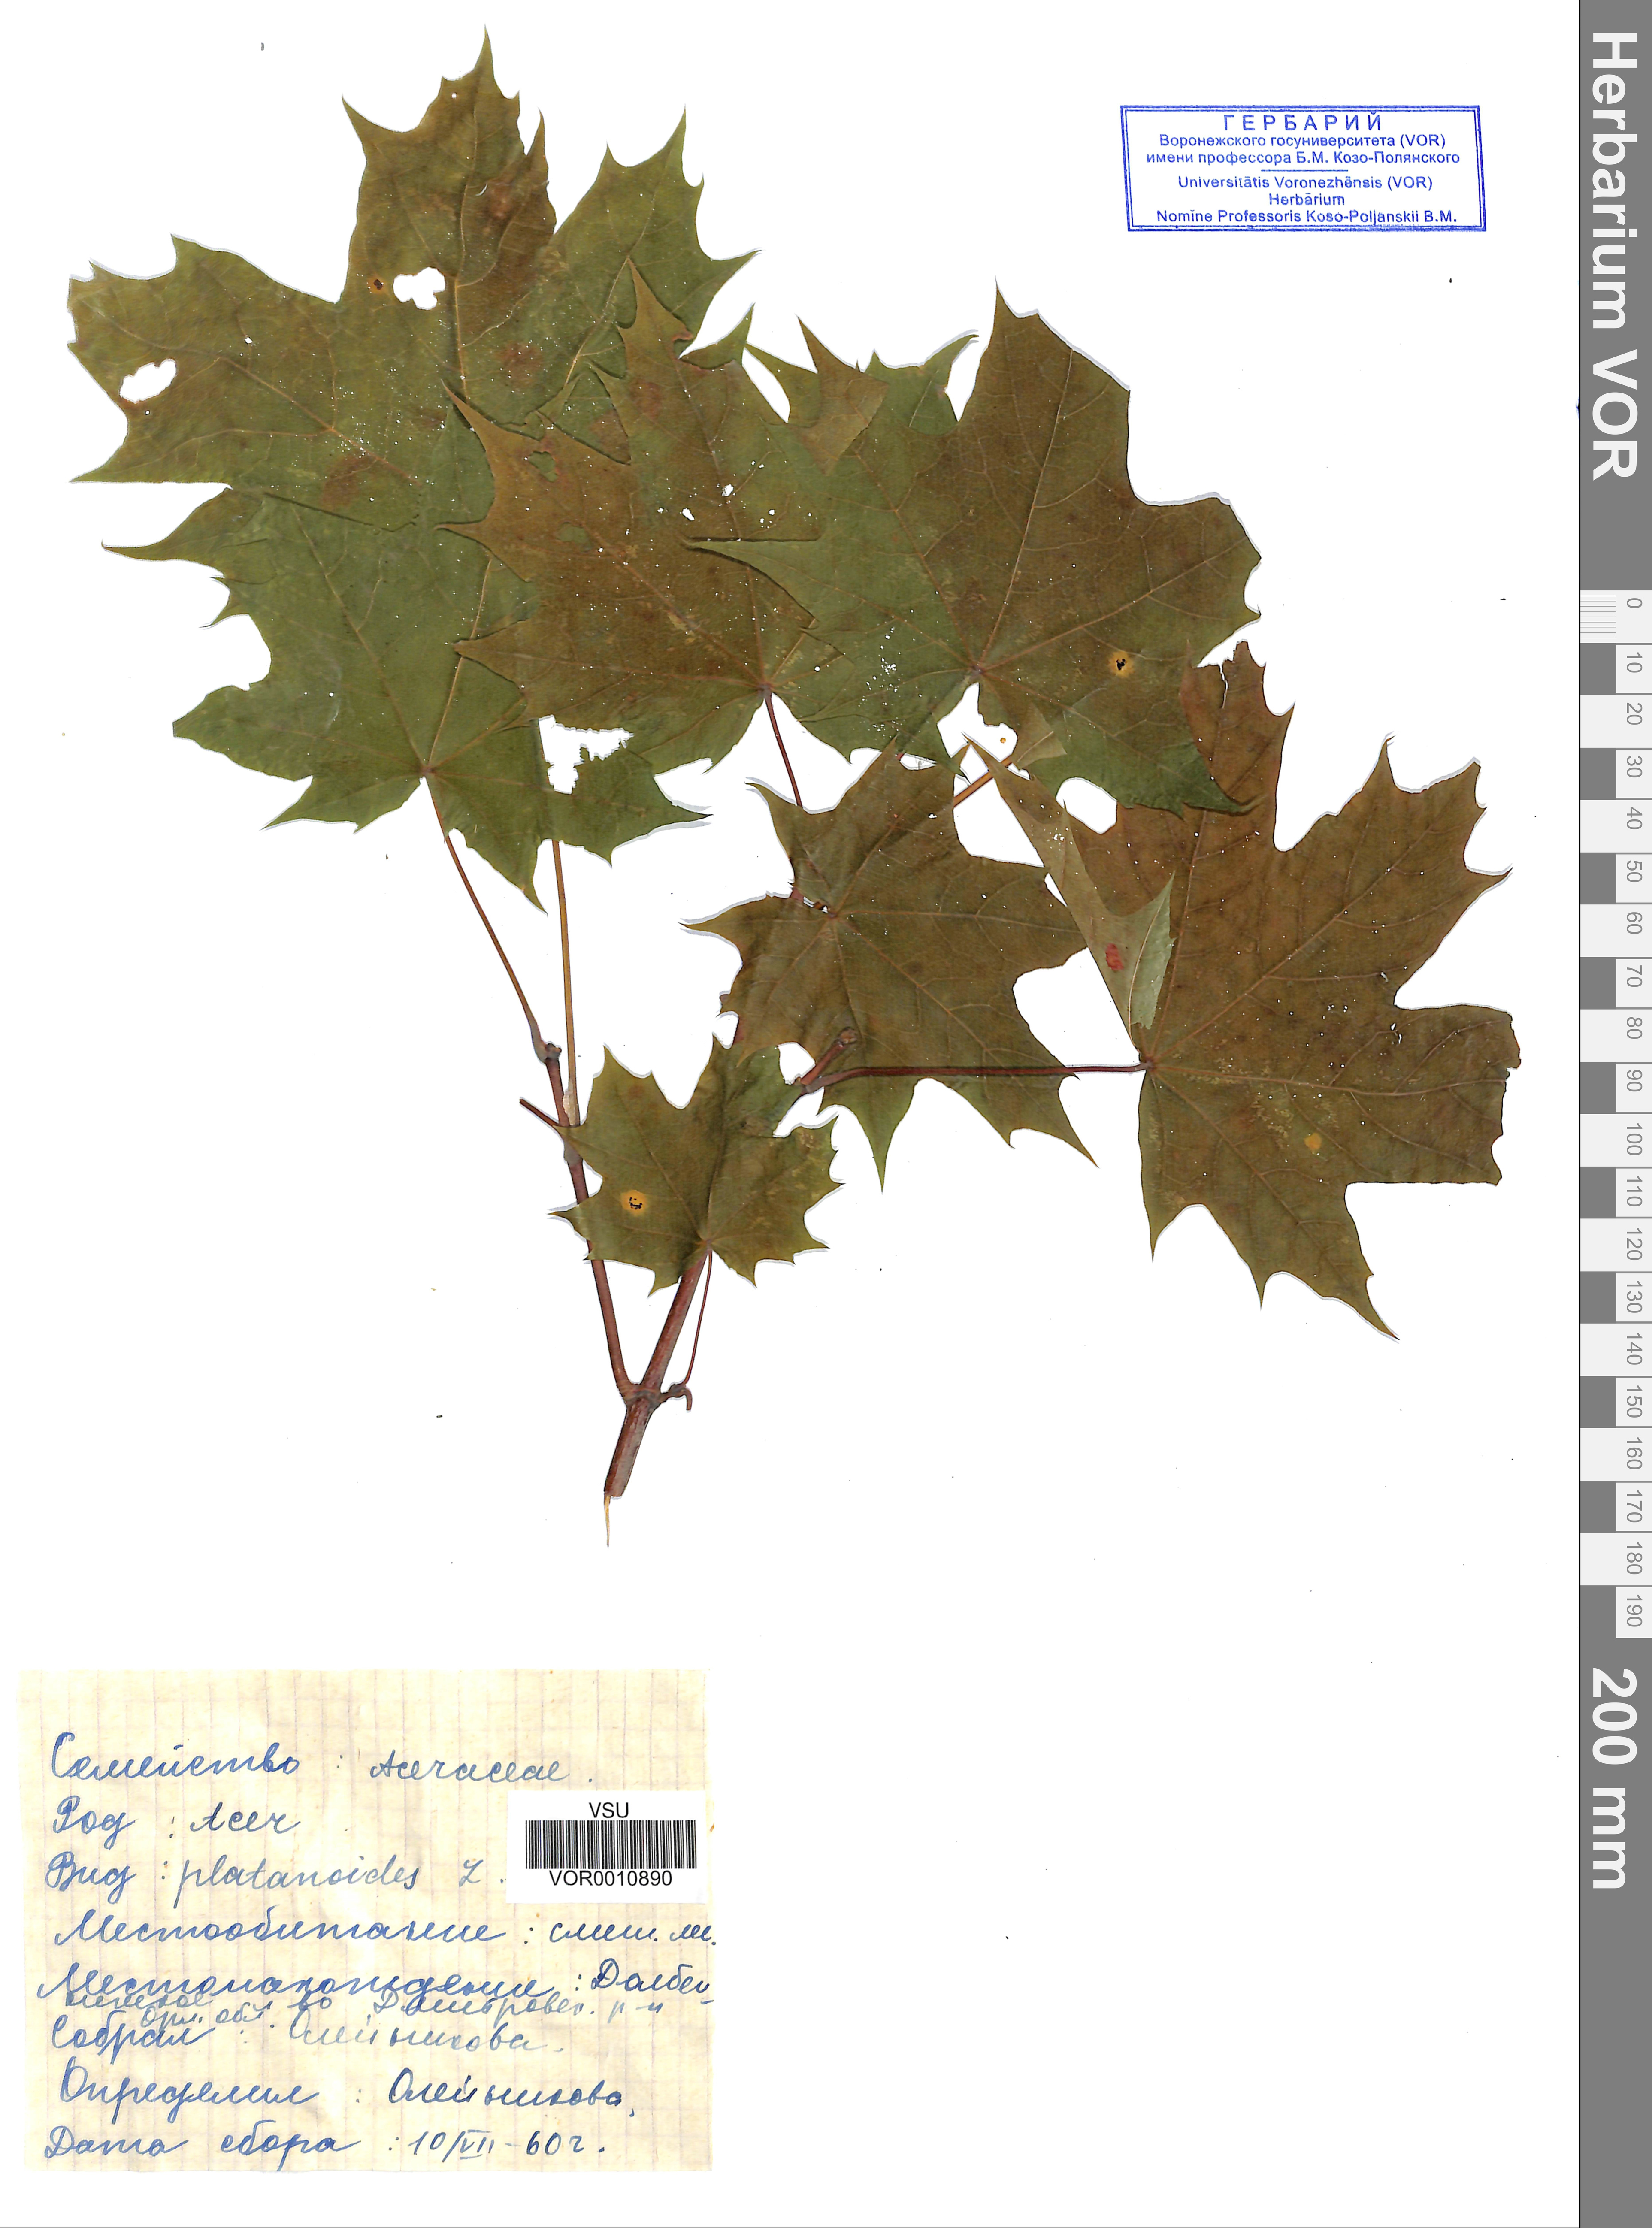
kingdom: Plantae
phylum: Tracheophyta
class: Magnoliopsida
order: Sapindales
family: Sapindaceae
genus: Acer
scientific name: Acer platanoides
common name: Norway maple
